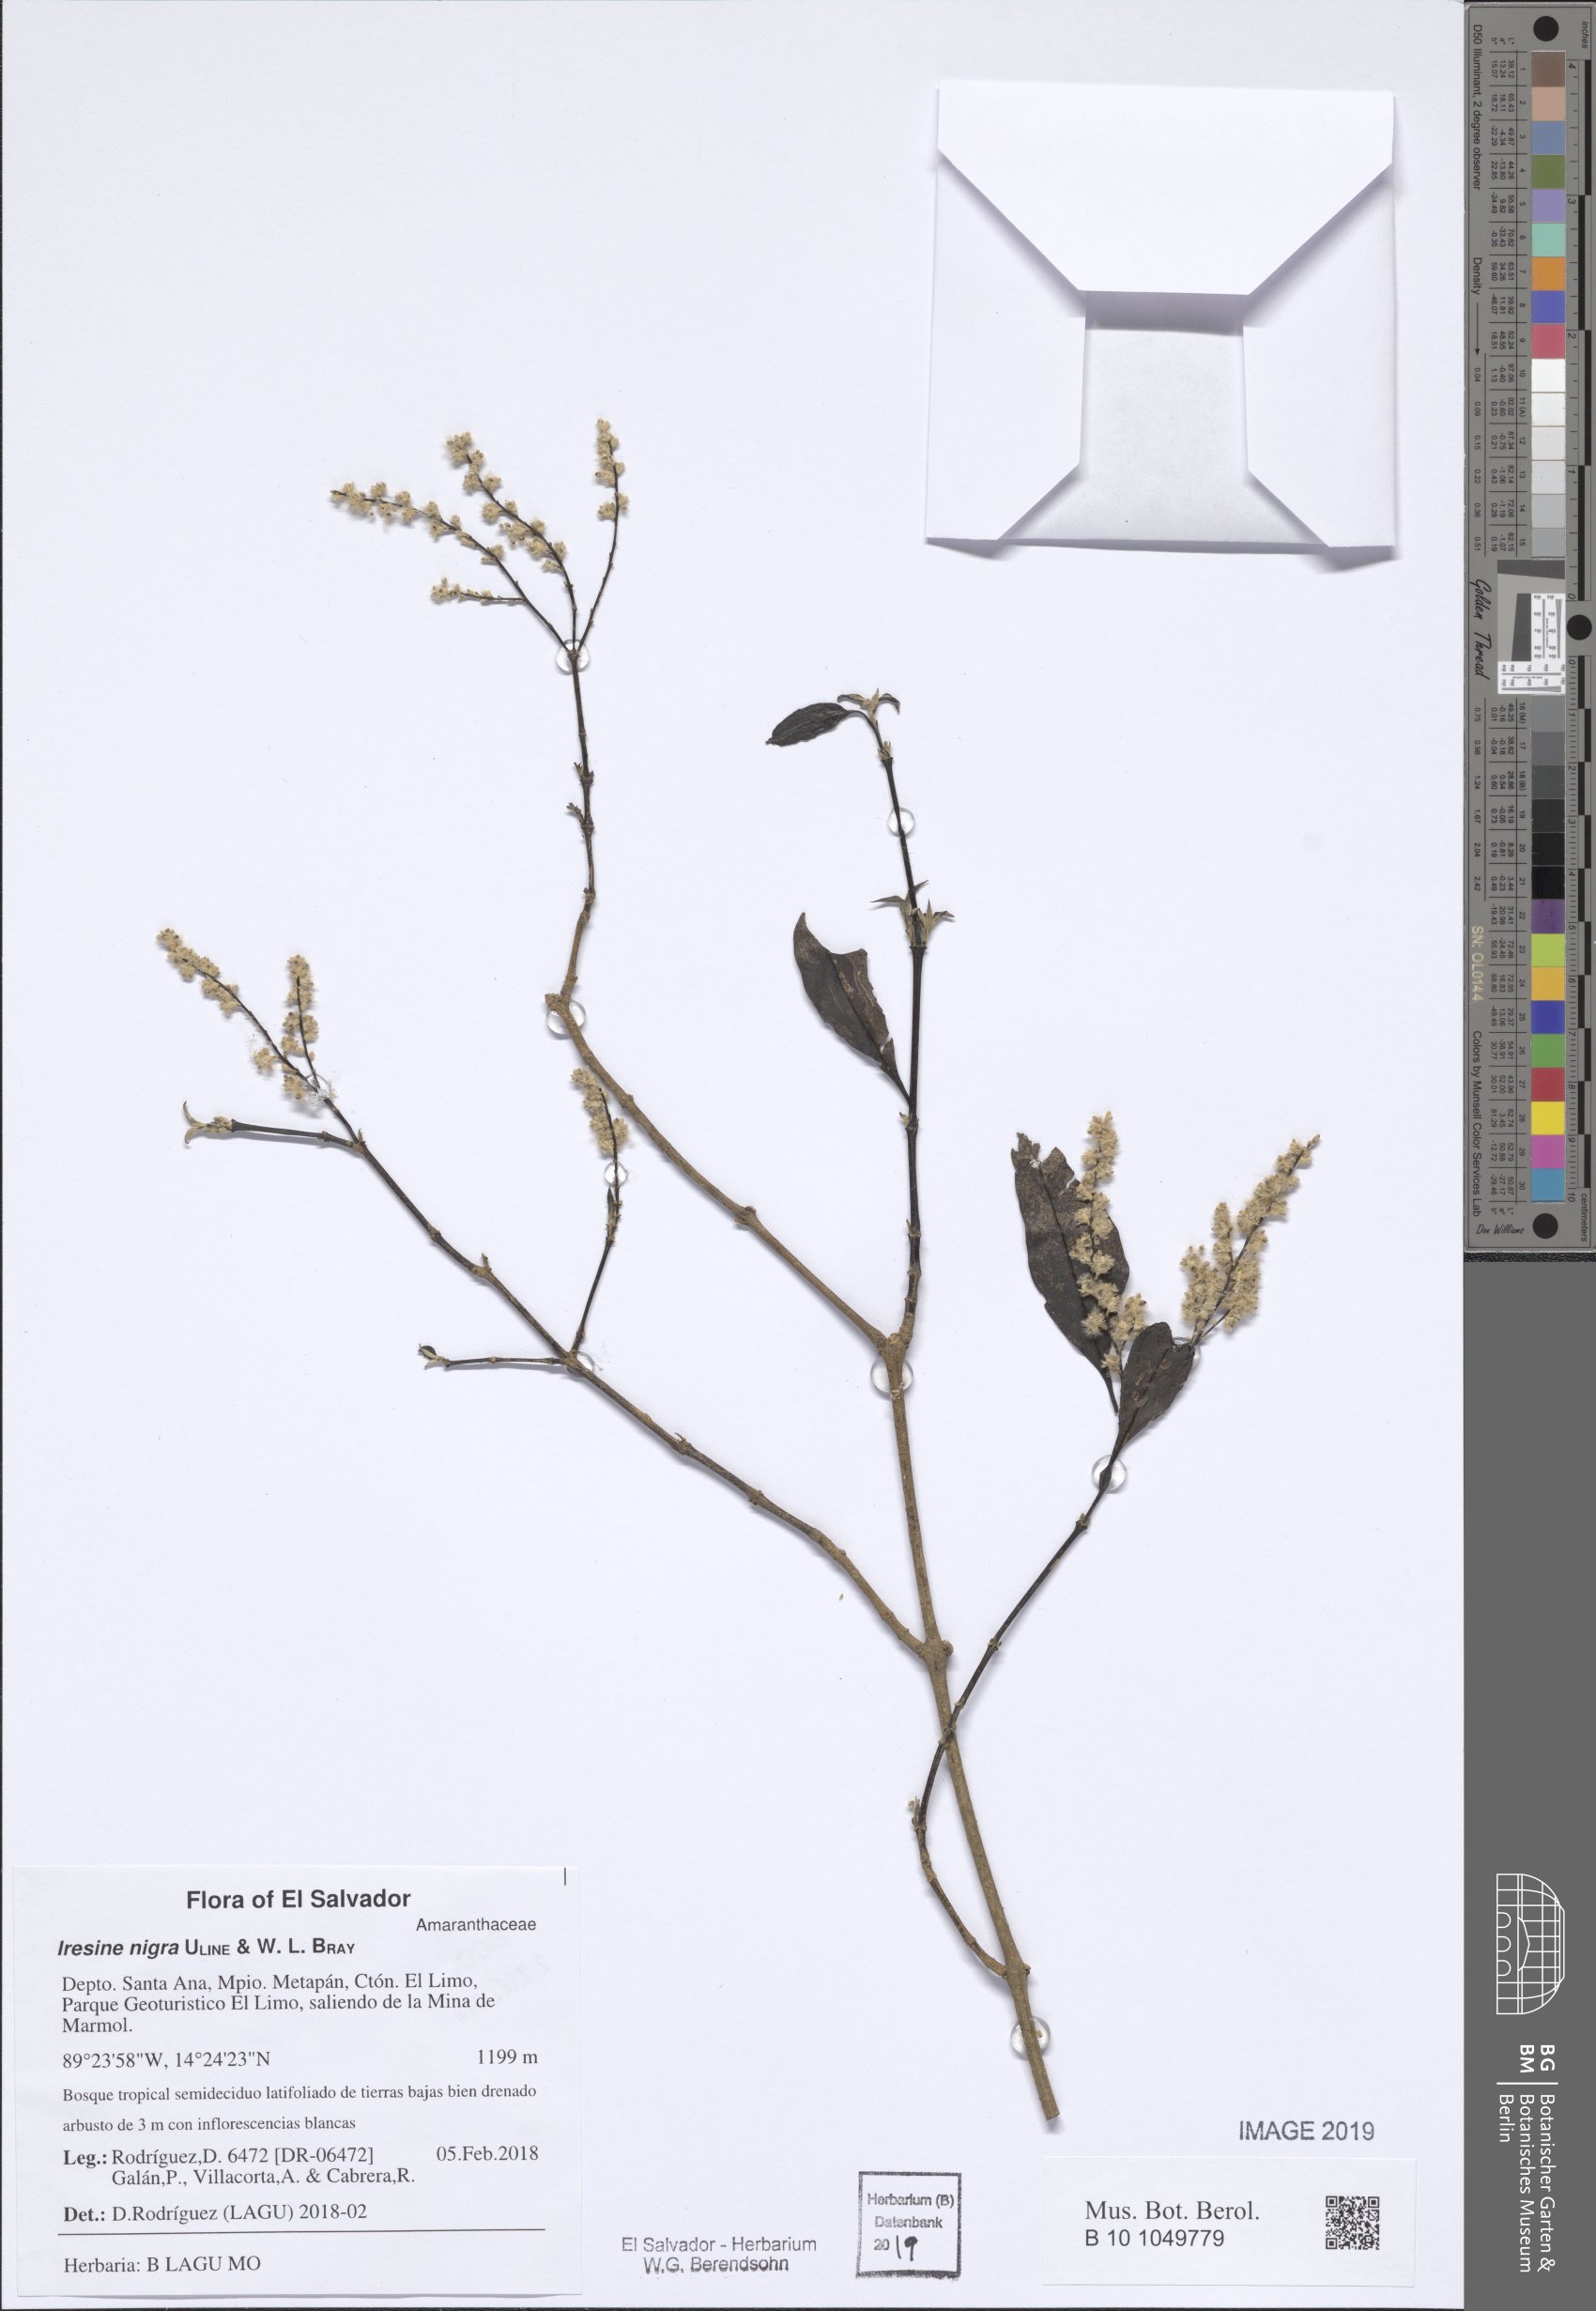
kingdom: Plantae
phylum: Tracheophyta
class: Magnoliopsida
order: Caryophyllales
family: Amaranthaceae
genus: Iresine
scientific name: Iresine nigra
